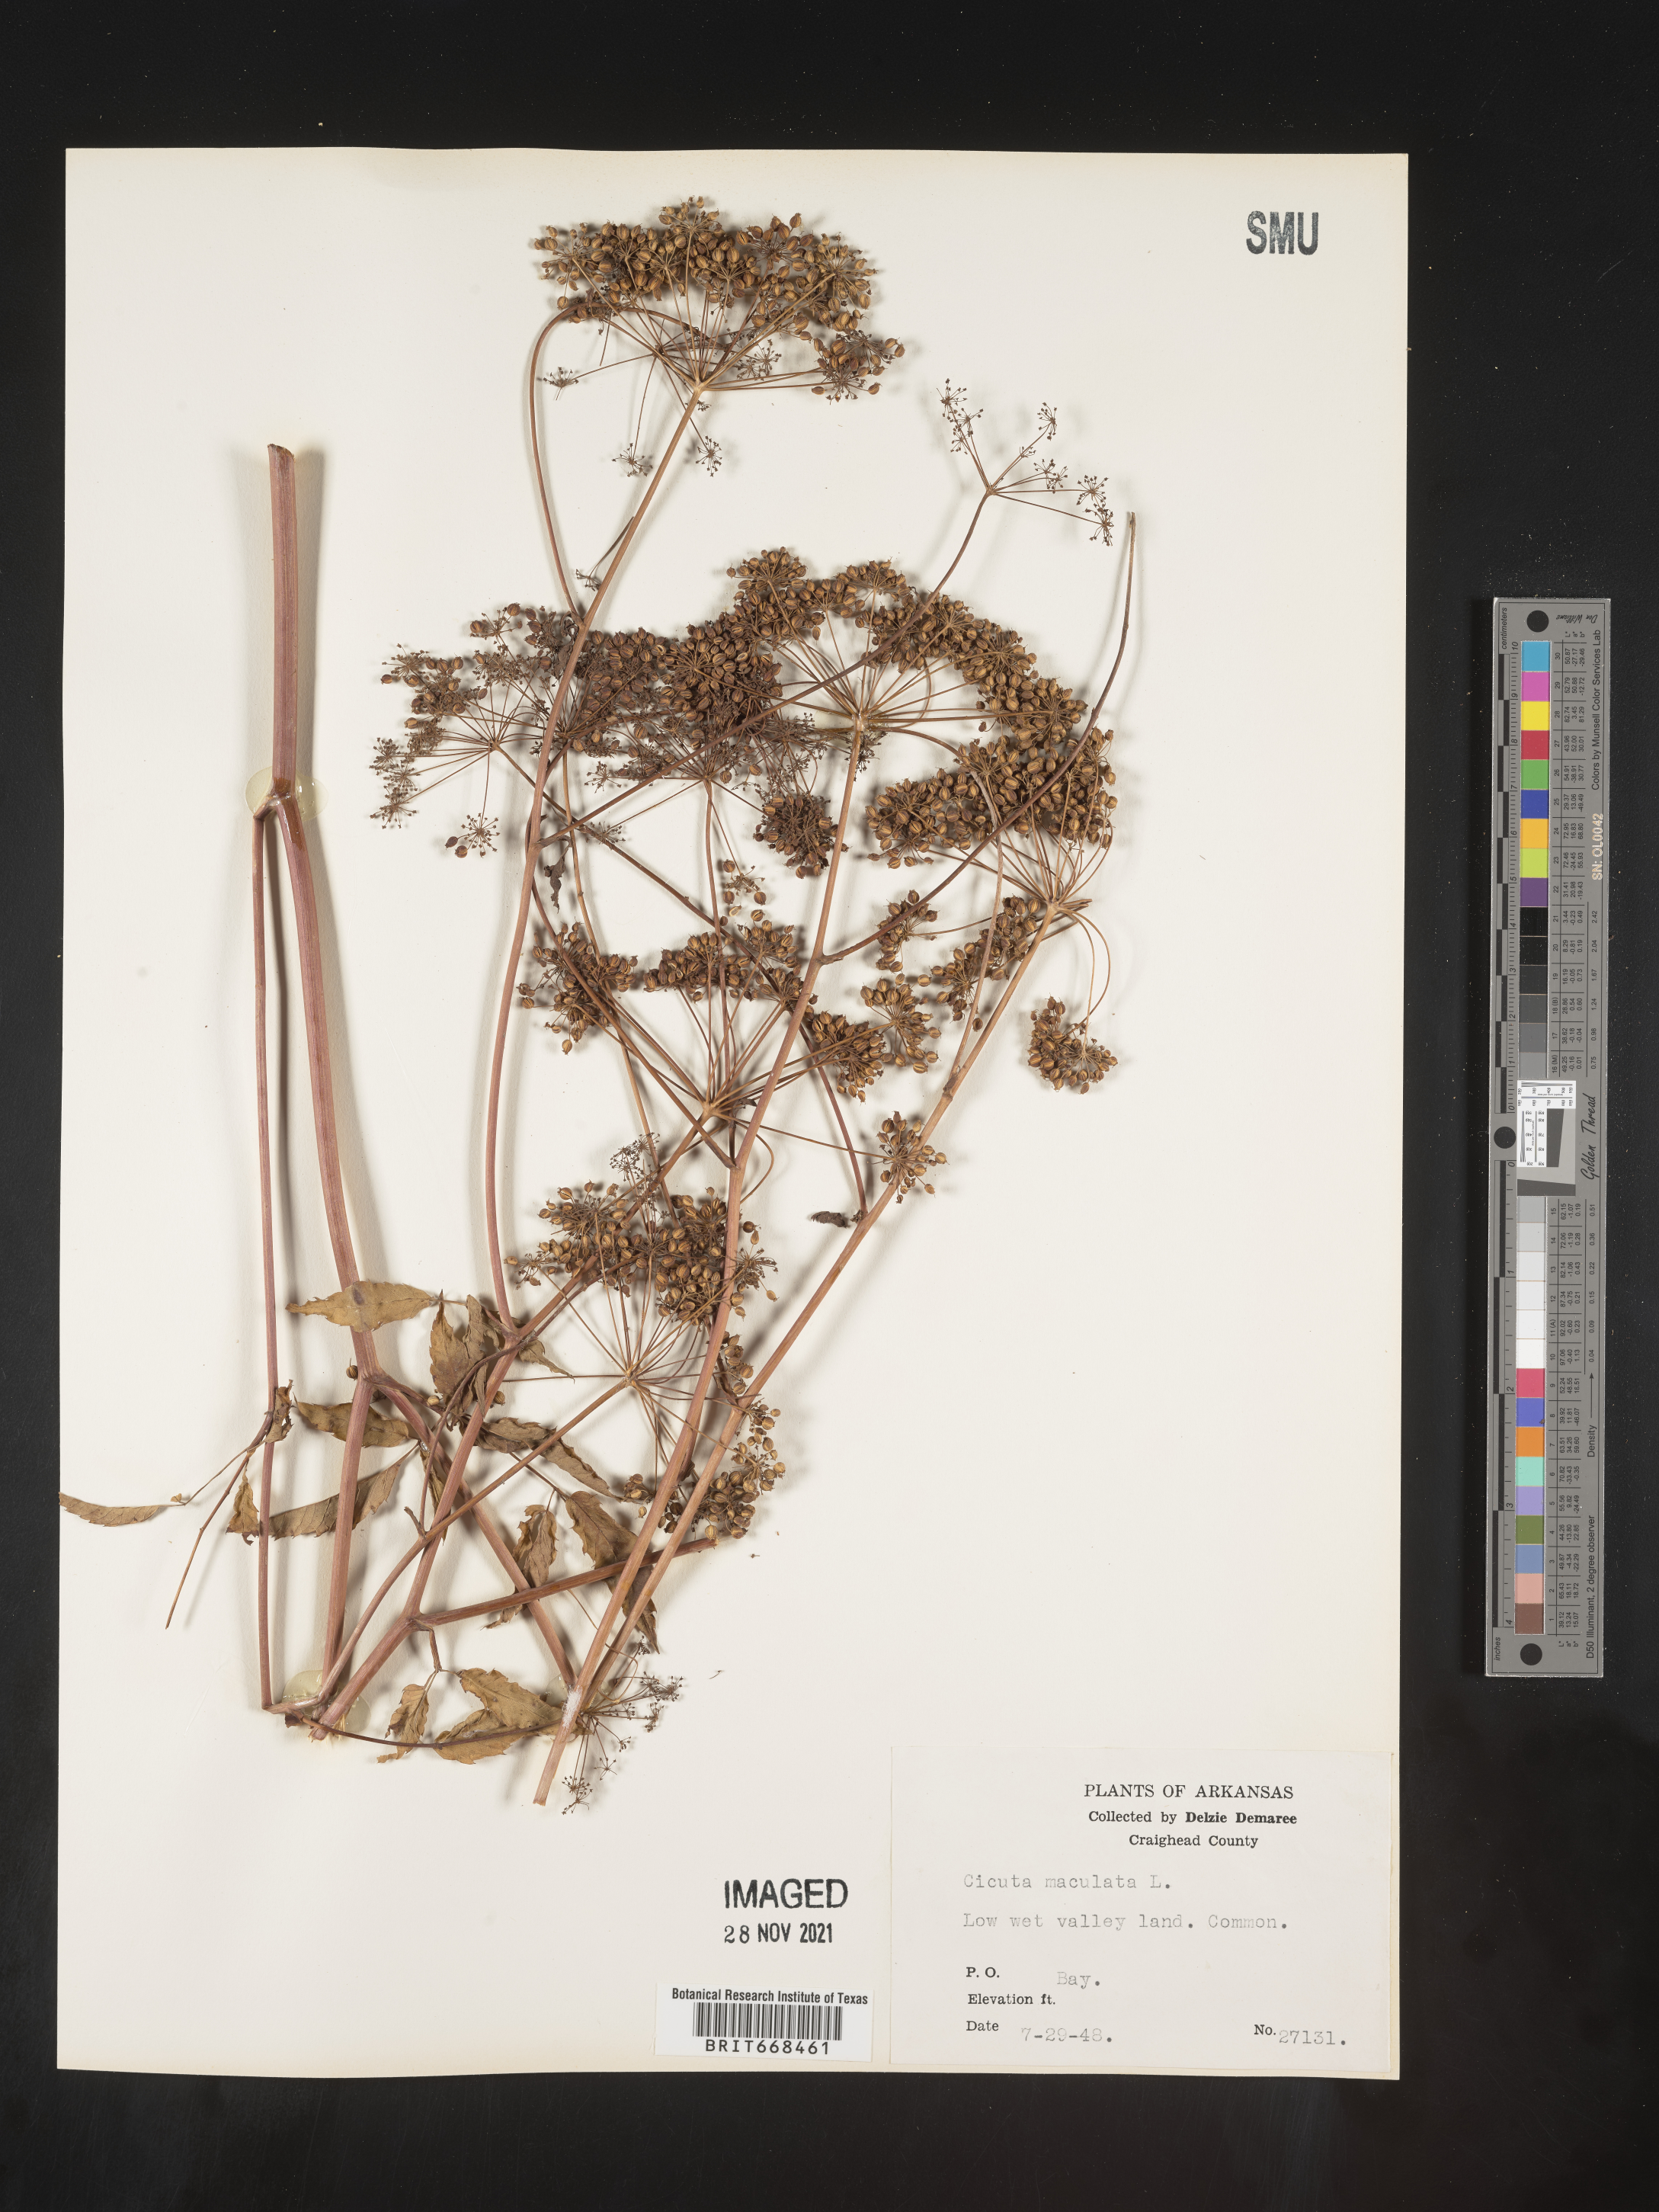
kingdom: Plantae
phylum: Tracheophyta
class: Magnoliopsida
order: Apiales
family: Apiaceae
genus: Cicuta
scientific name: Cicuta maculata
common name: Spotted cowbane
